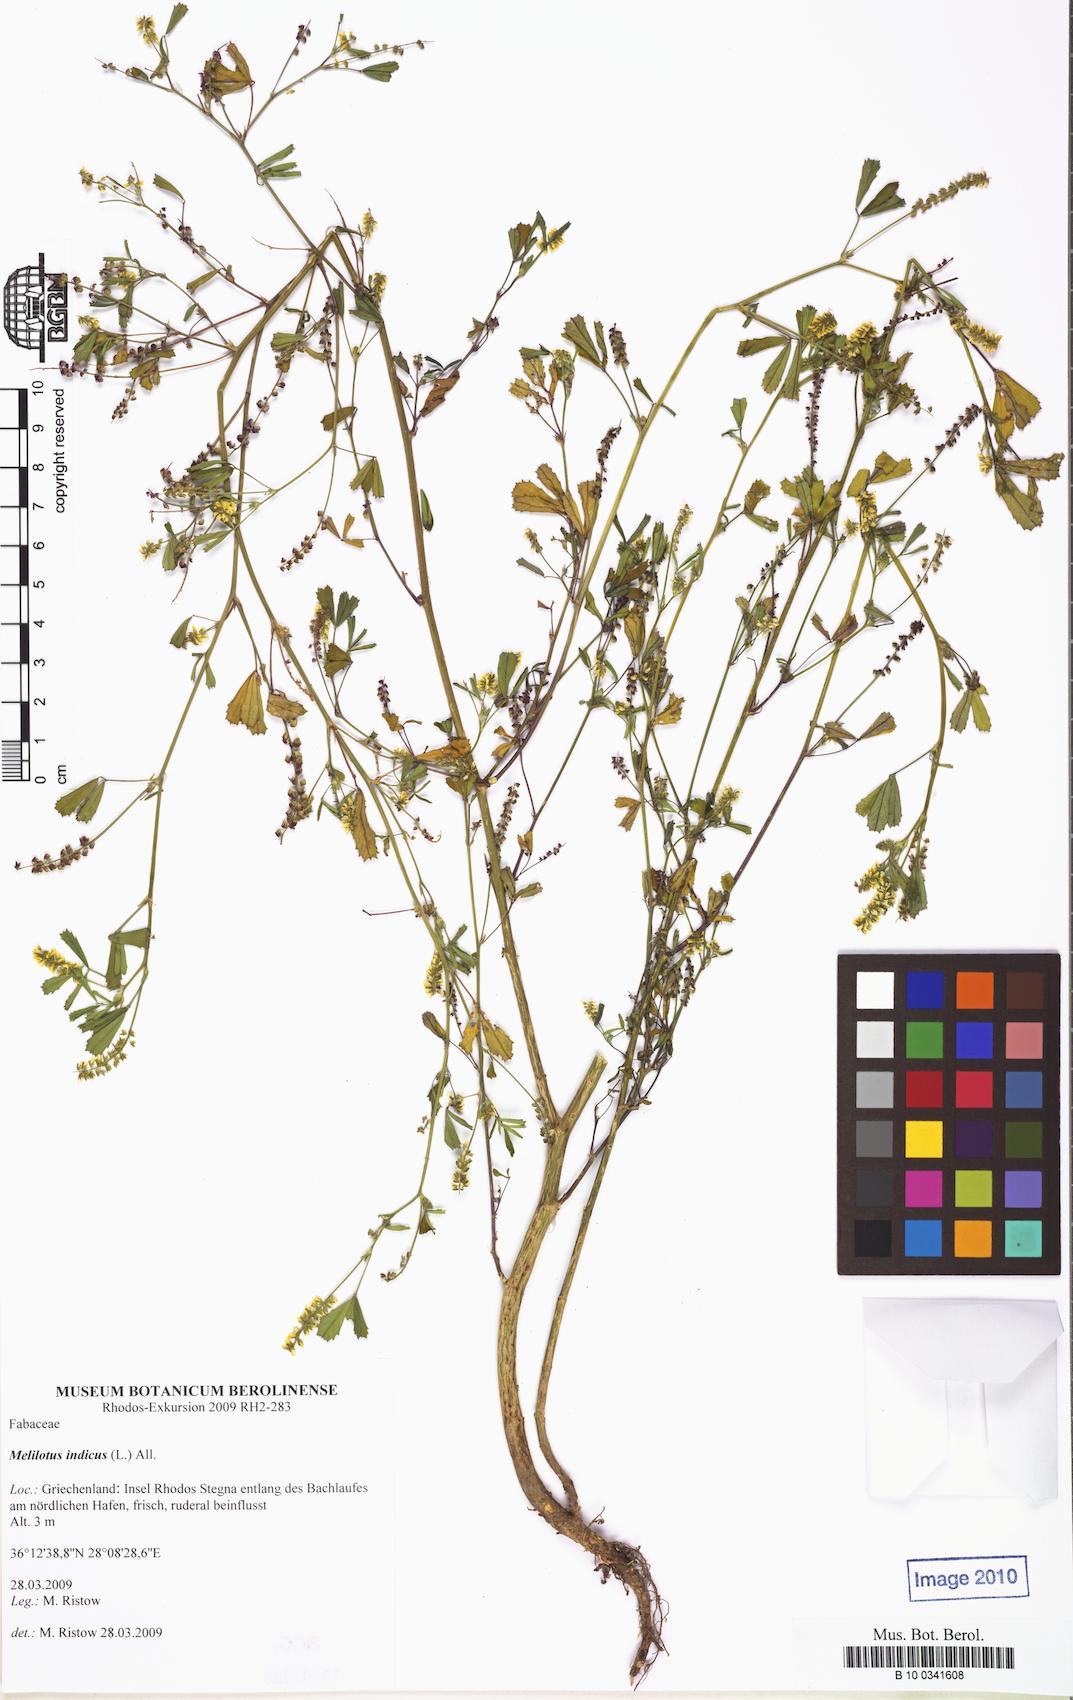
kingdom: Plantae
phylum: Tracheophyta
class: Magnoliopsida
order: Fabales
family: Fabaceae
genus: Melilotus
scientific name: Melilotus indicus
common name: Small melilot
